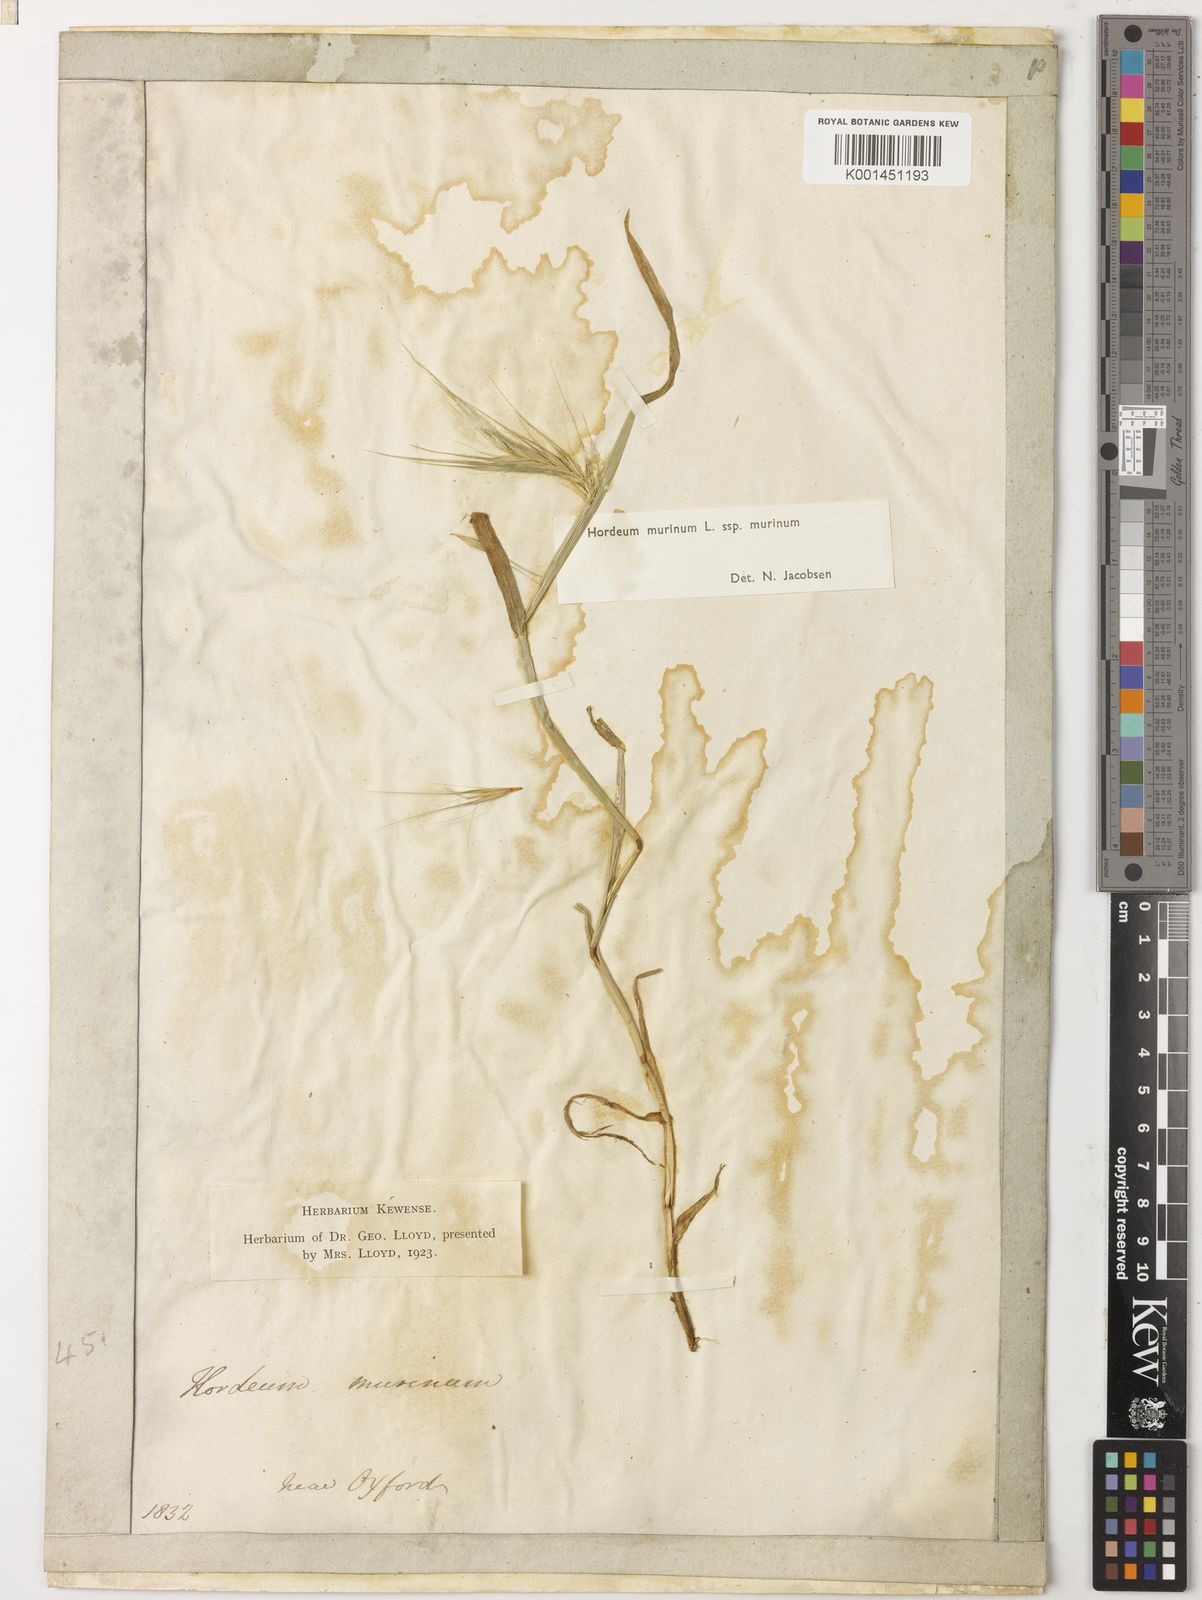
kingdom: Plantae
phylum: Tracheophyta
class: Liliopsida
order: Poales
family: Poaceae
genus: Hordeum
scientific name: Hordeum murinum
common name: Wall barley
